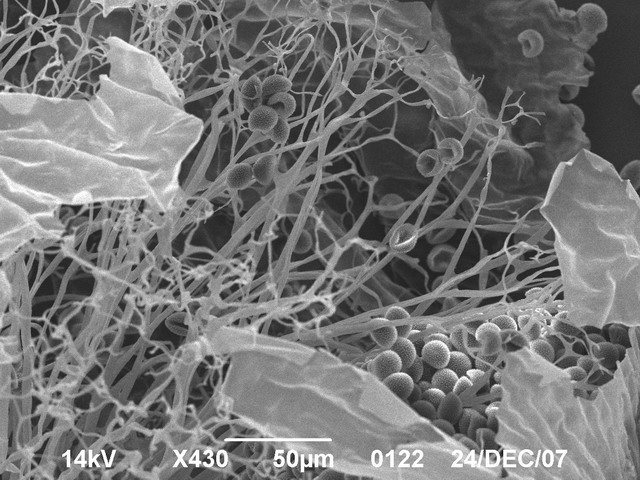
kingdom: Protozoa
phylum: Mycetozoa
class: Myxomycetes
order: Stemonitidales
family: Stemonitidaceae
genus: Lamproderma
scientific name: Lamproderma granulosum
